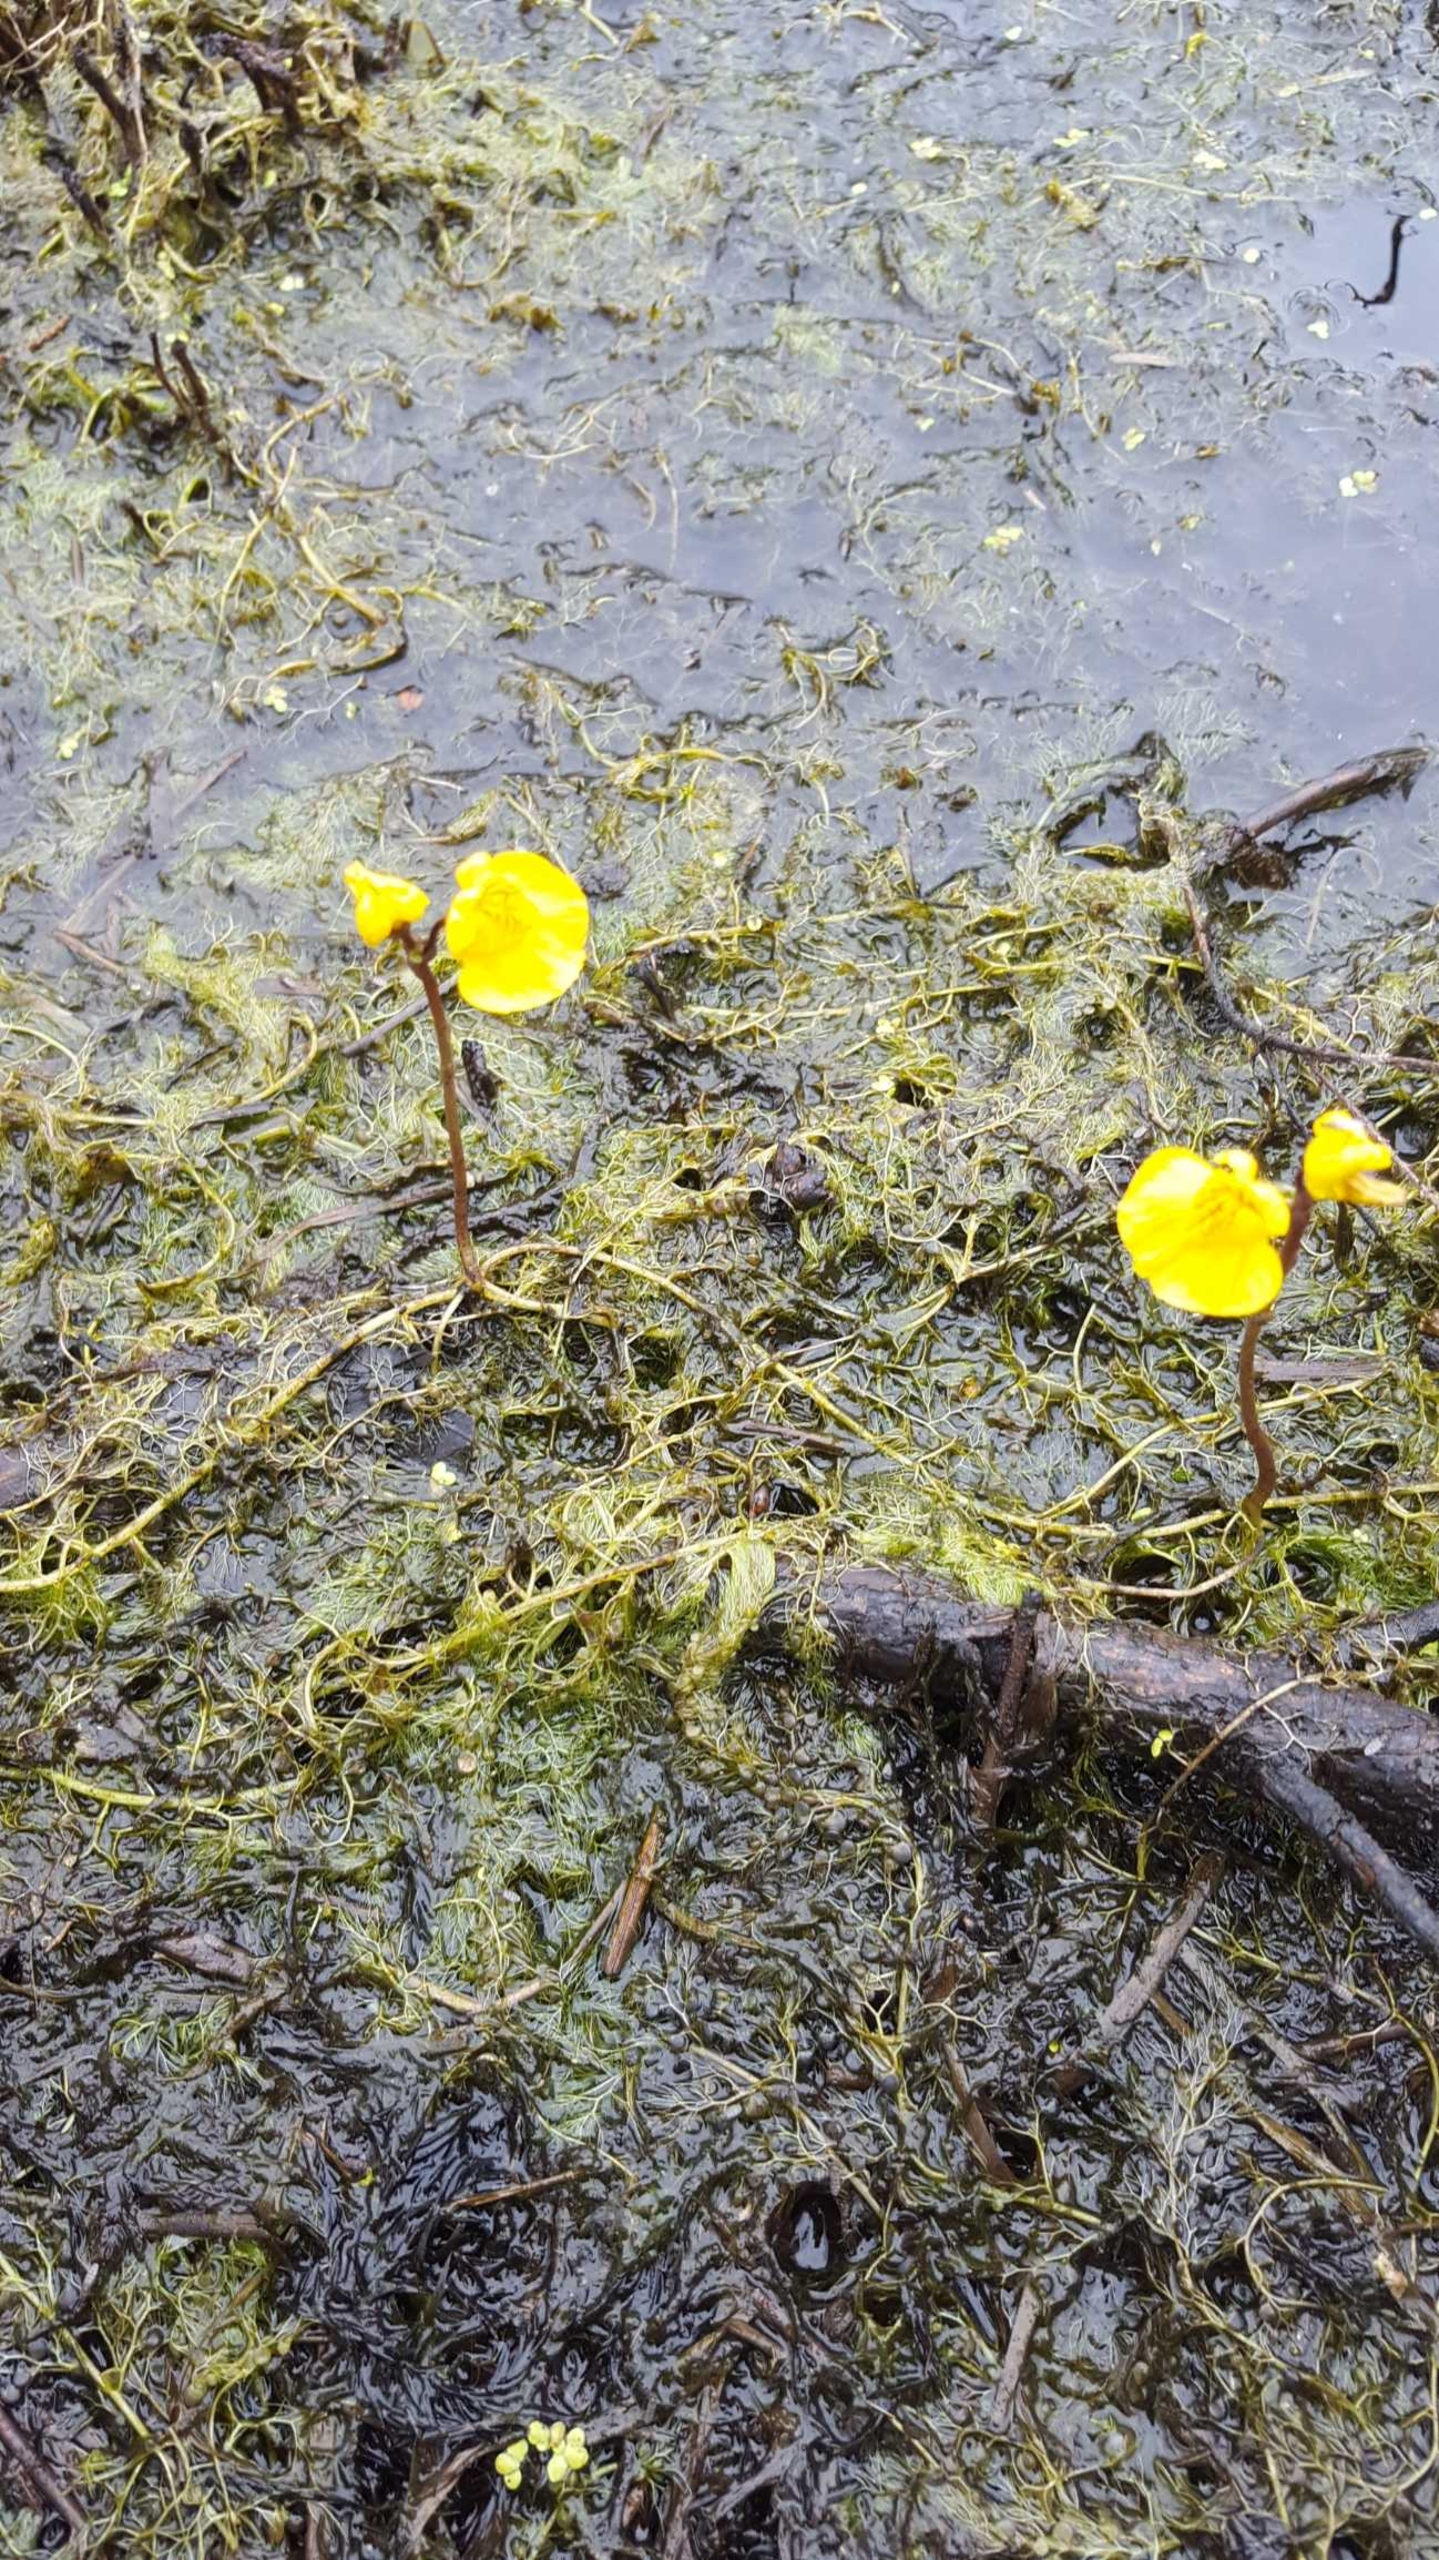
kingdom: Plantae
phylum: Tracheophyta
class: Magnoliopsida
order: Lamiales
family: Lentibulariaceae
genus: Utricularia
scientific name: Utricularia australis
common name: Slank blærerod
